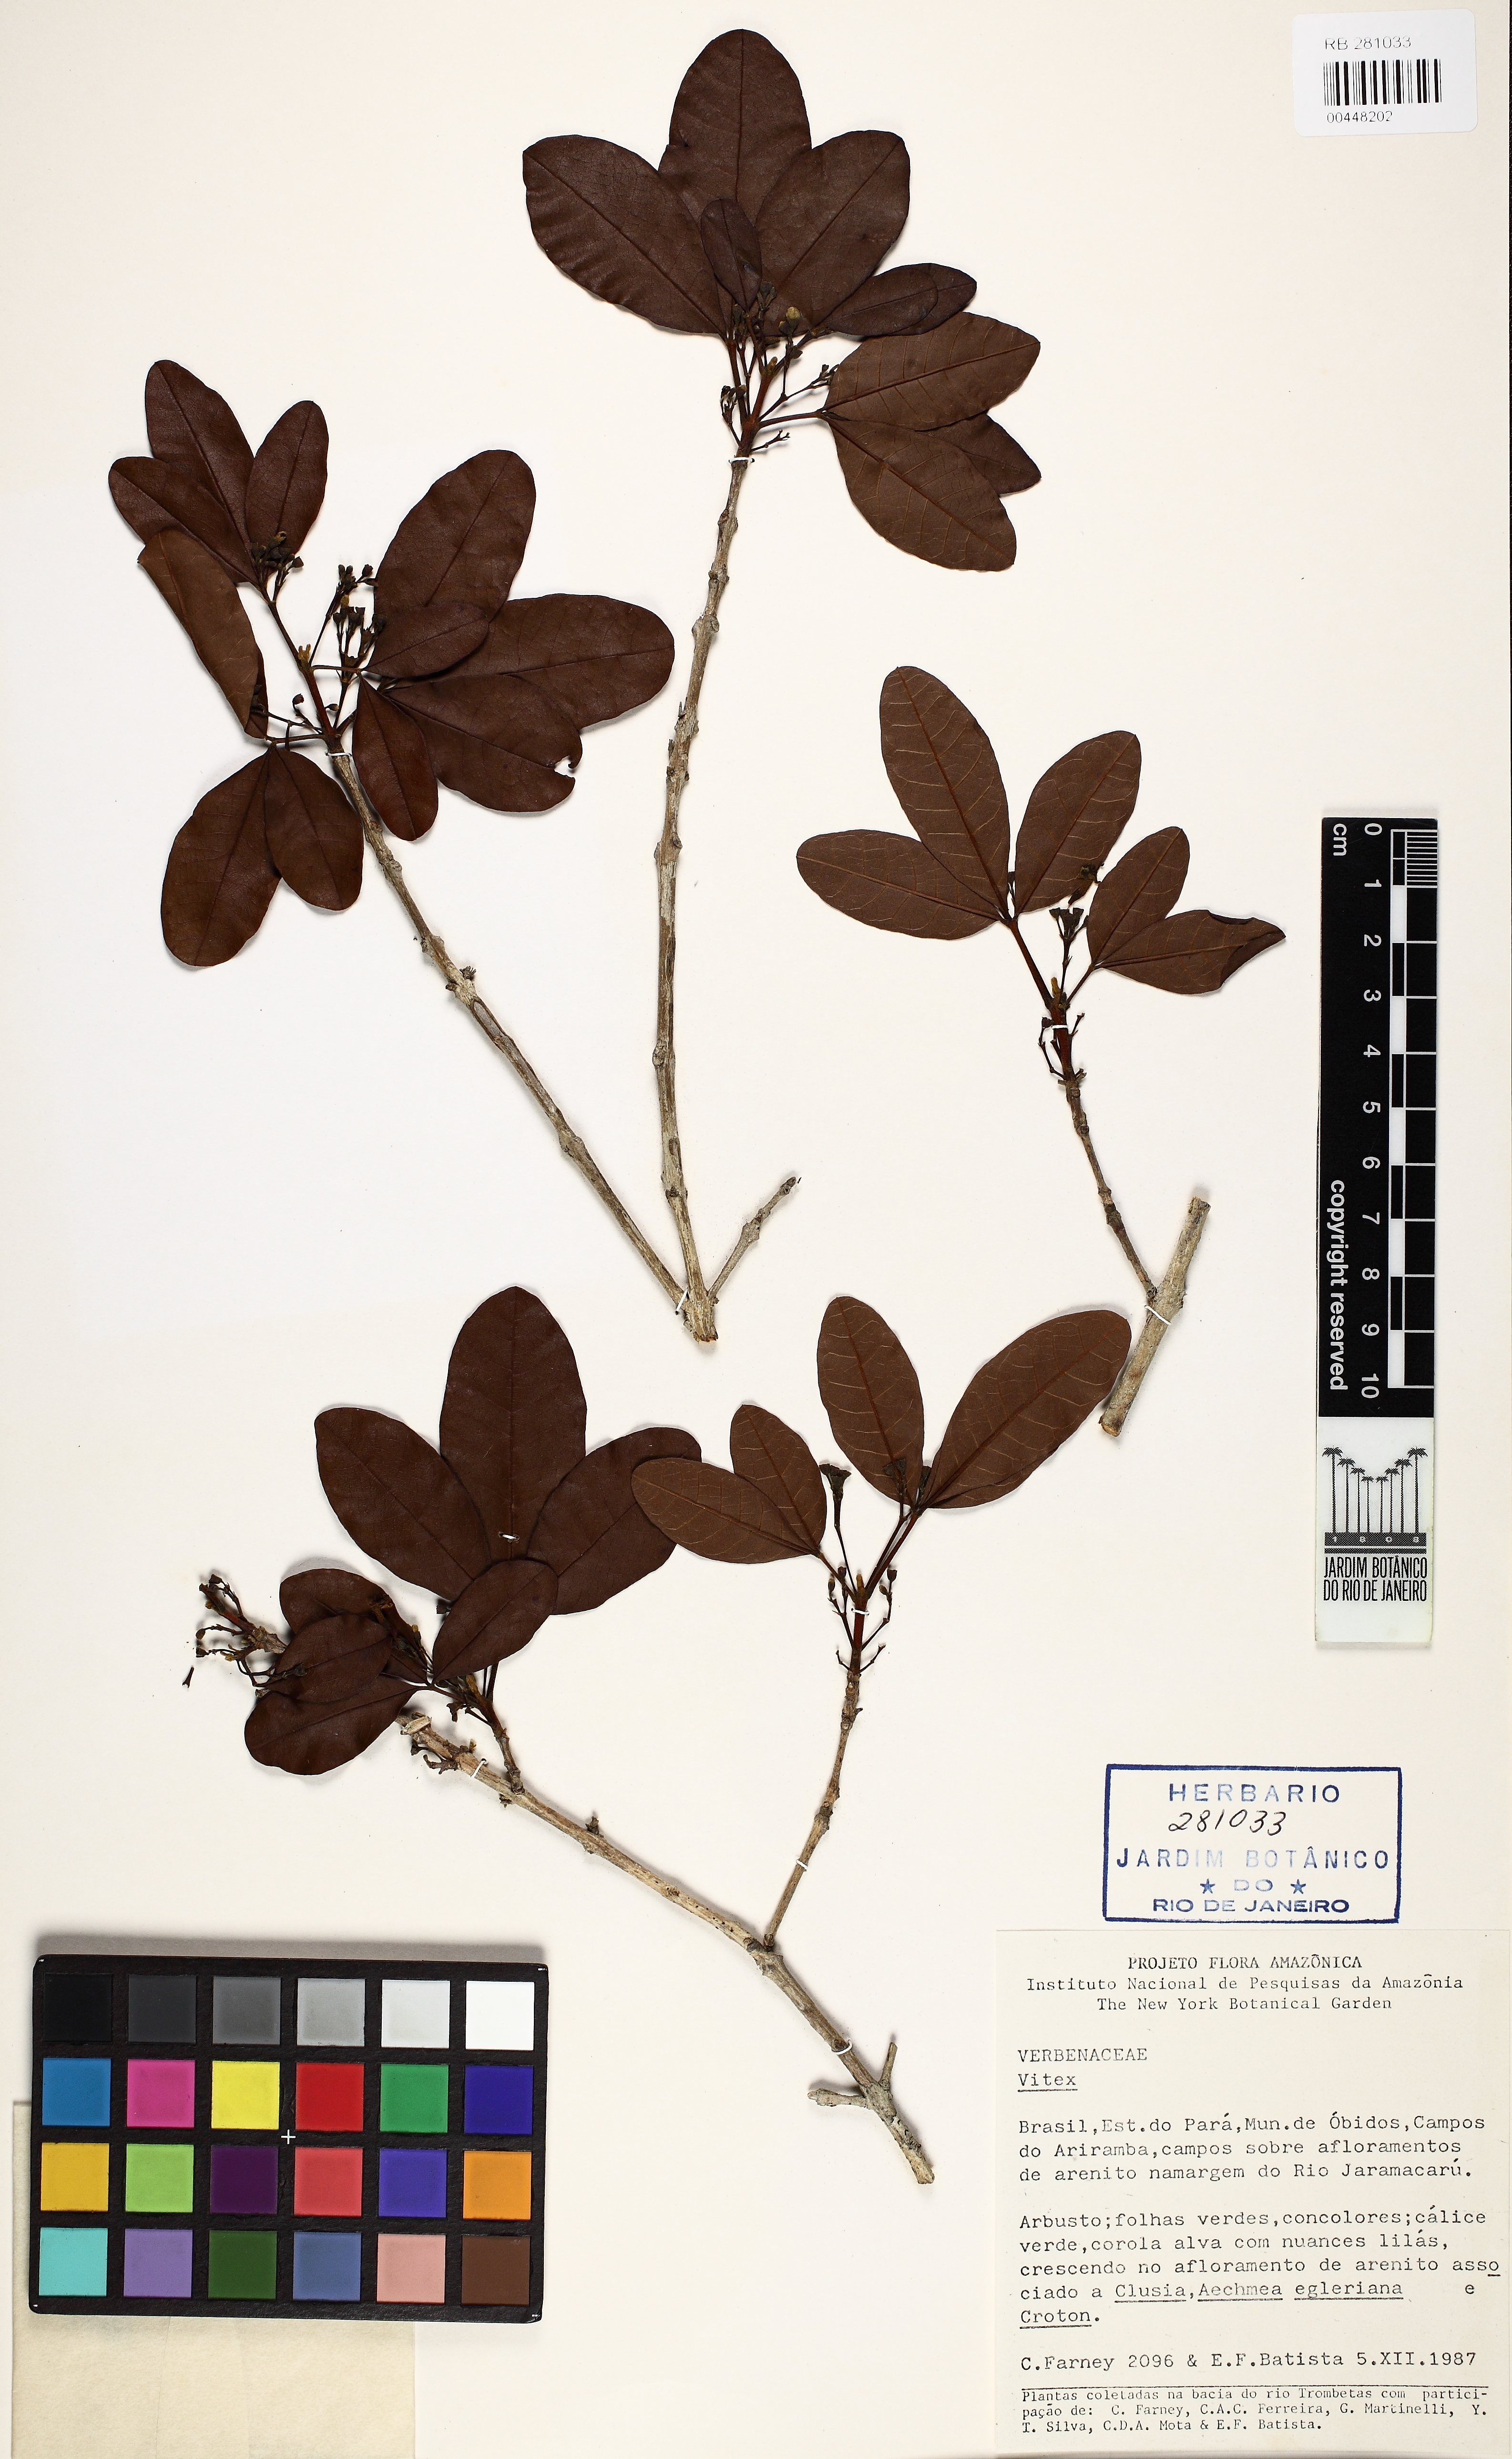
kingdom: Plantae
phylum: Tracheophyta
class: Magnoliopsida
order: Lamiales
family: Lamiaceae
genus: Vitex
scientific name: Vitex
